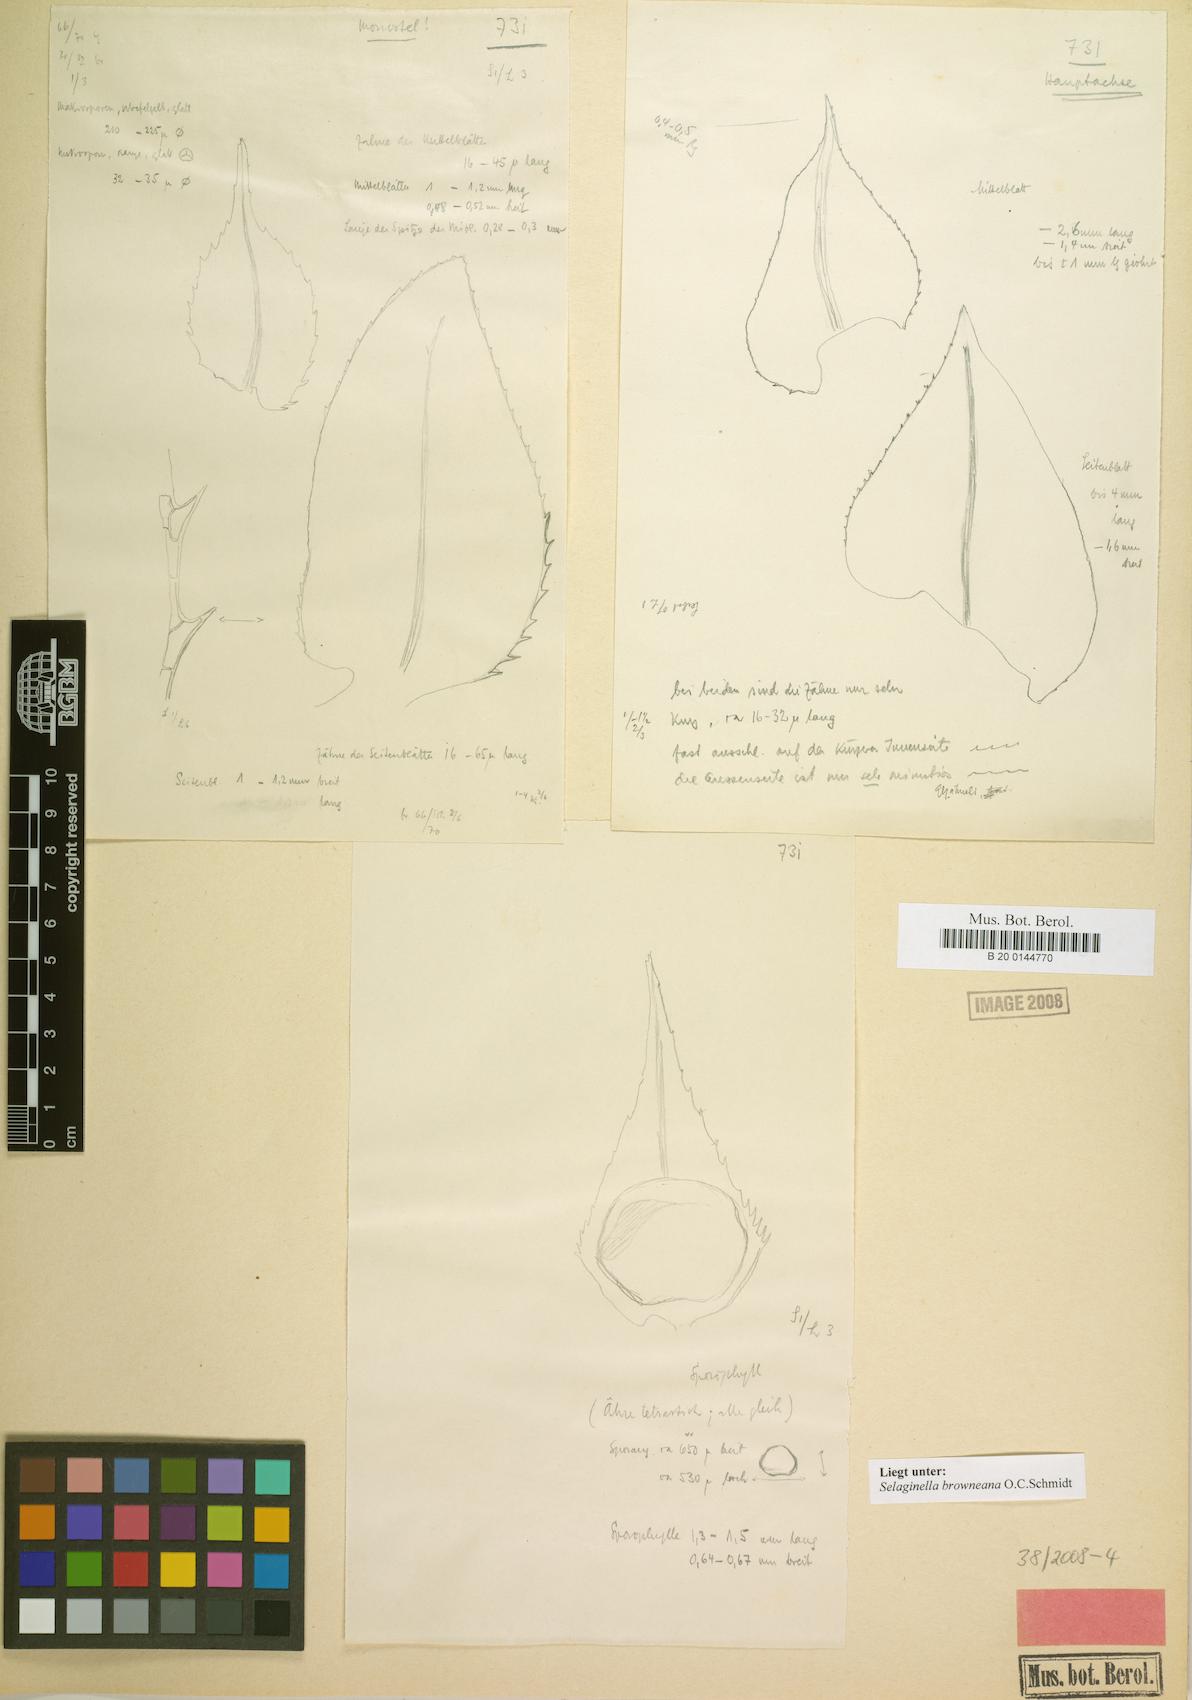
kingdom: Plantae
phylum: Tracheophyta
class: Lycopodiopsida
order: Selaginellales
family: Selaginellaceae
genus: Selaginella
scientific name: Selaginella arbuscula
